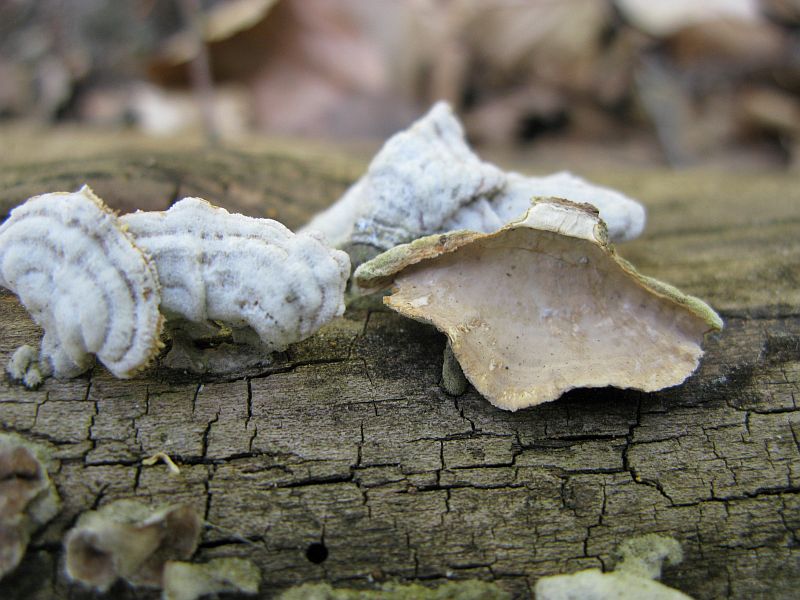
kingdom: Fungi
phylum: Basidiomycota
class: Agaricomycetes
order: Russulales
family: Stereaceae
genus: Stereum
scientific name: Stereum subtomentosum
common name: smuk lædersvamp
